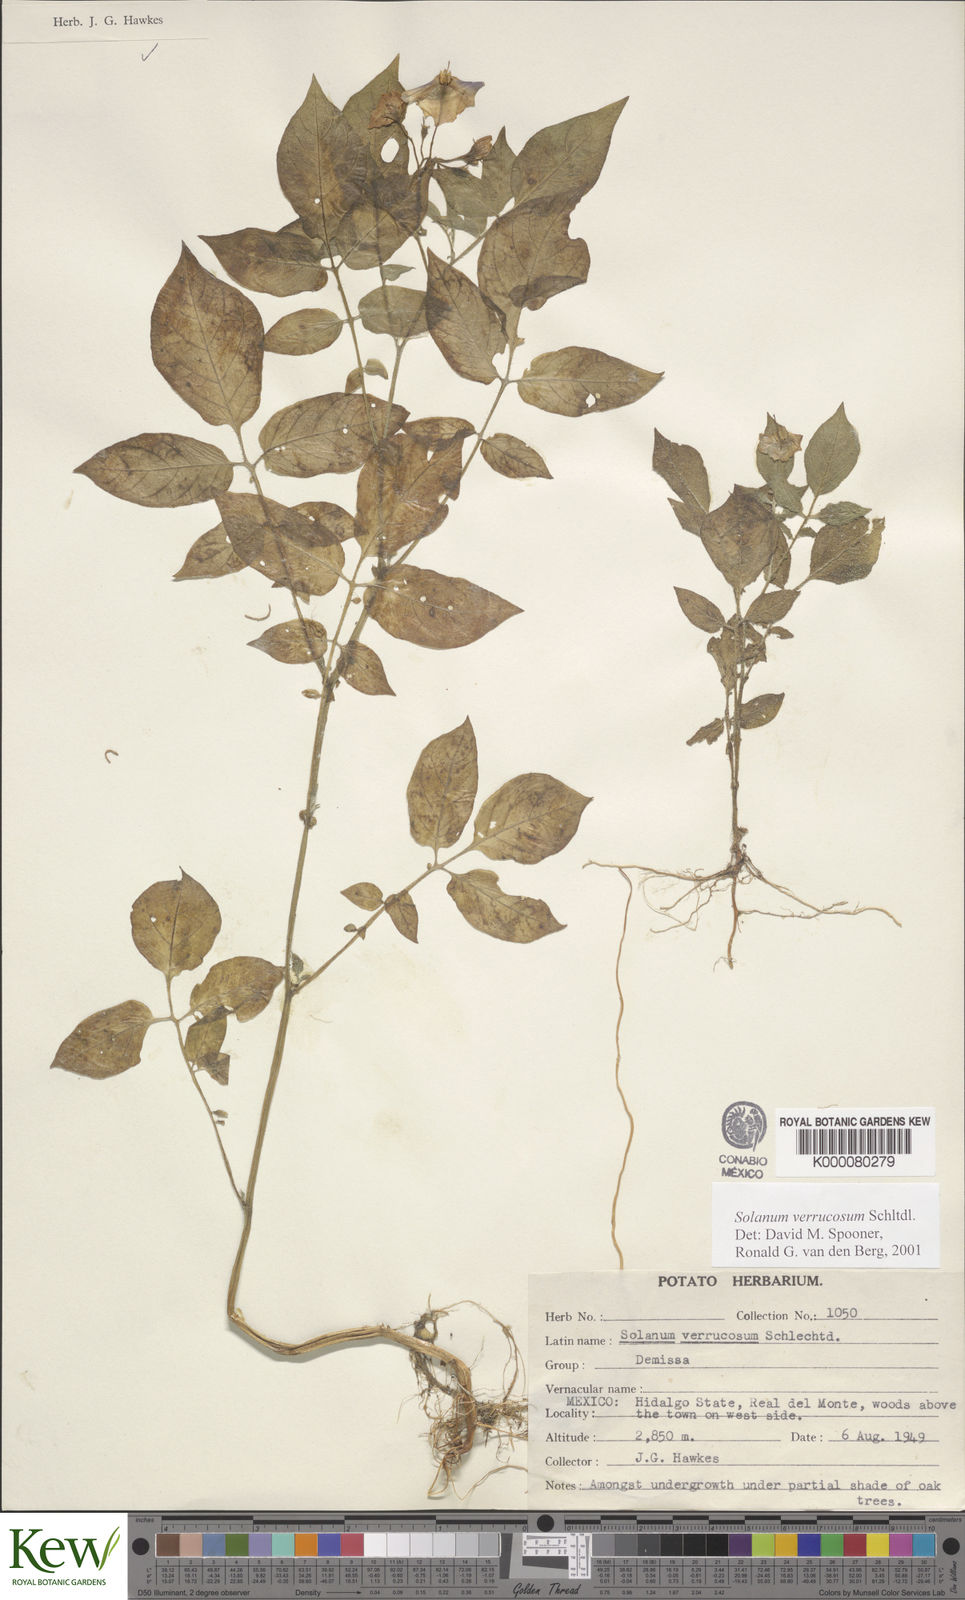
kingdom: Plantae
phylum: Tracheophyta
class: Magnoliopsida
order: Solanales
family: Solanaceae
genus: Solanum
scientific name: Solanum verrucosum
